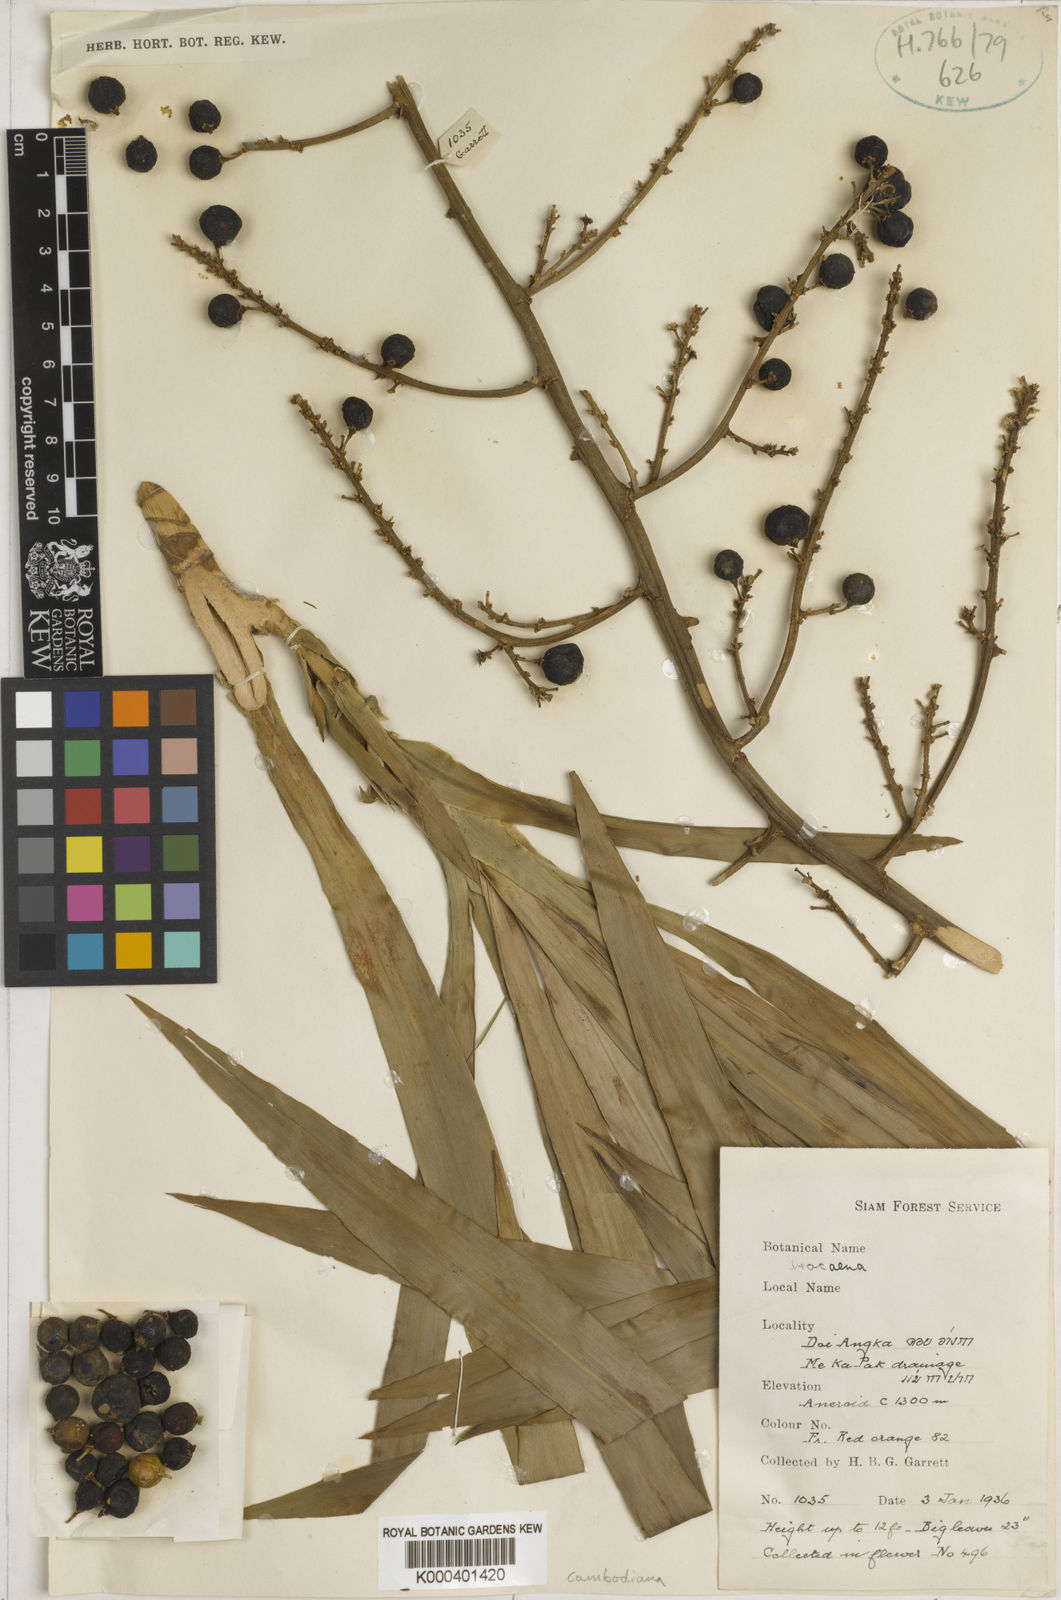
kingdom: Plantae
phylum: Tracheophyta
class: Liliopsida
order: Asparagales
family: Asparagaceae
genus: Dracaena
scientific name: Dracaena cambodiana
